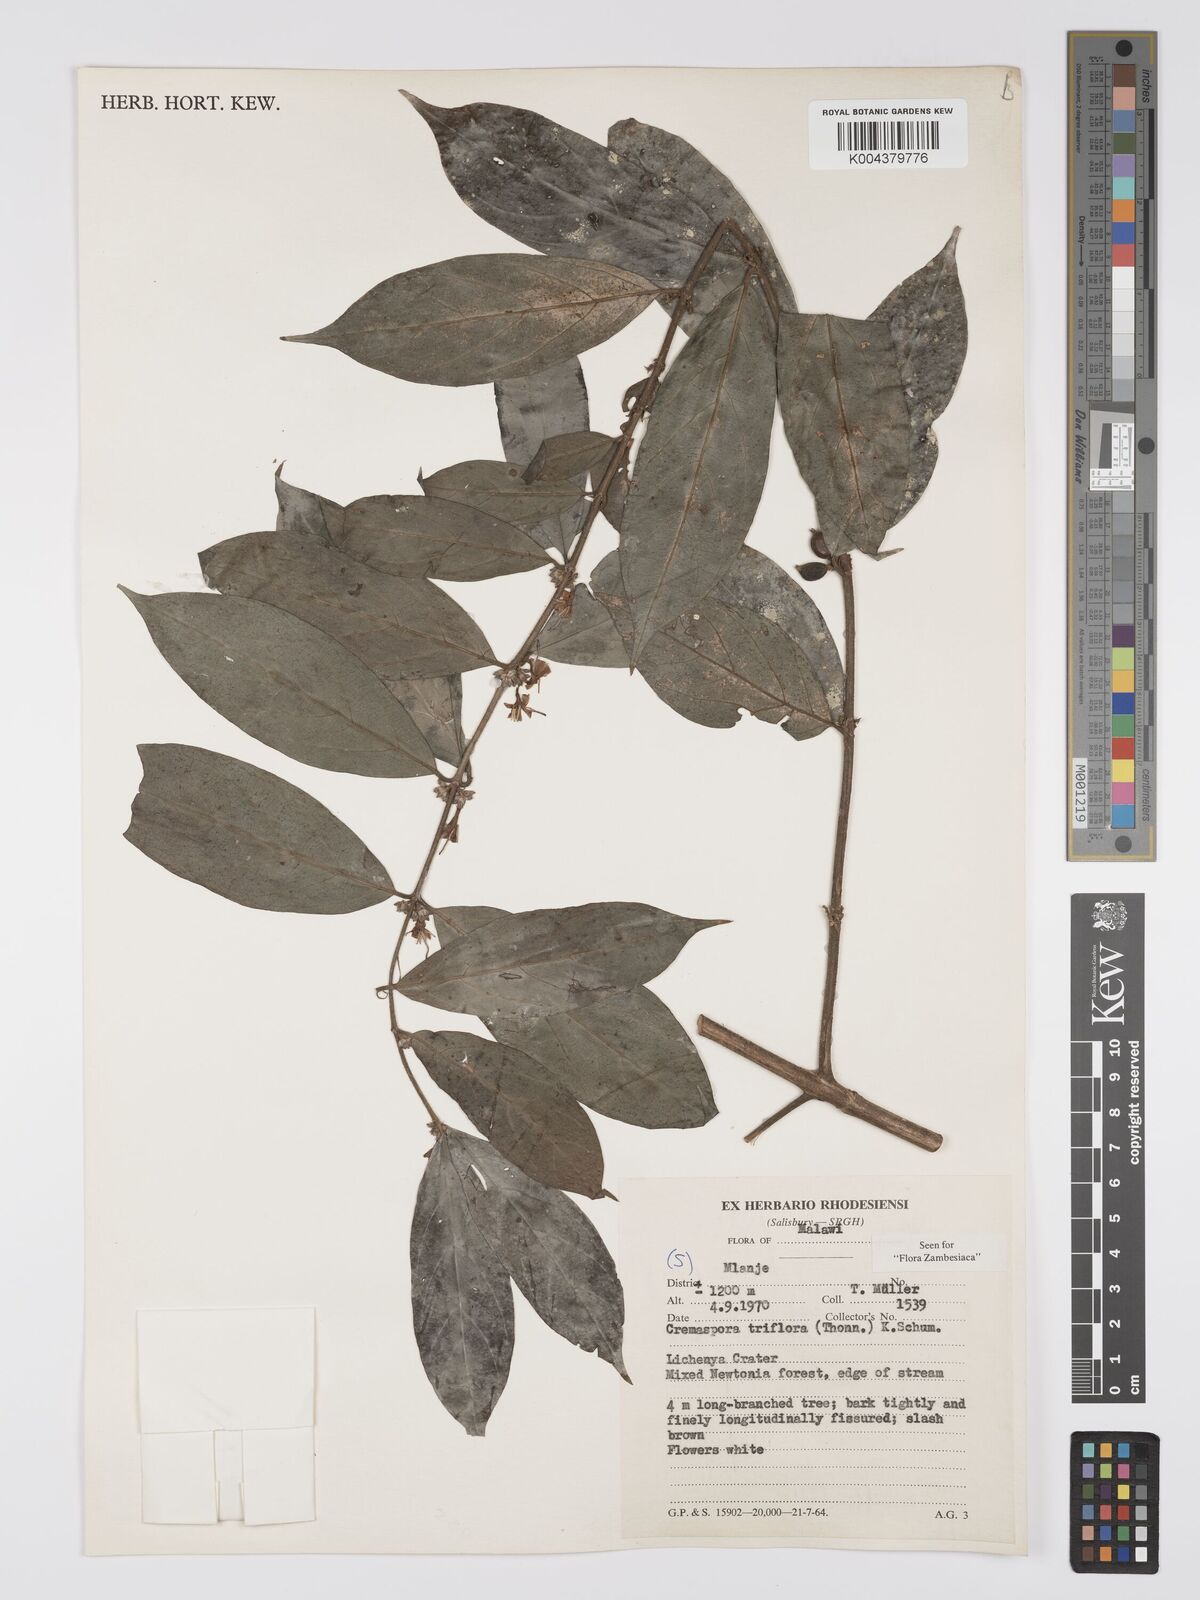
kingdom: Plantae
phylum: Tracheophyta
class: Magnoliopsida
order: Gentianales
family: Rubiaceae
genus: Cremaspora
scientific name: Cremaspora triflora
